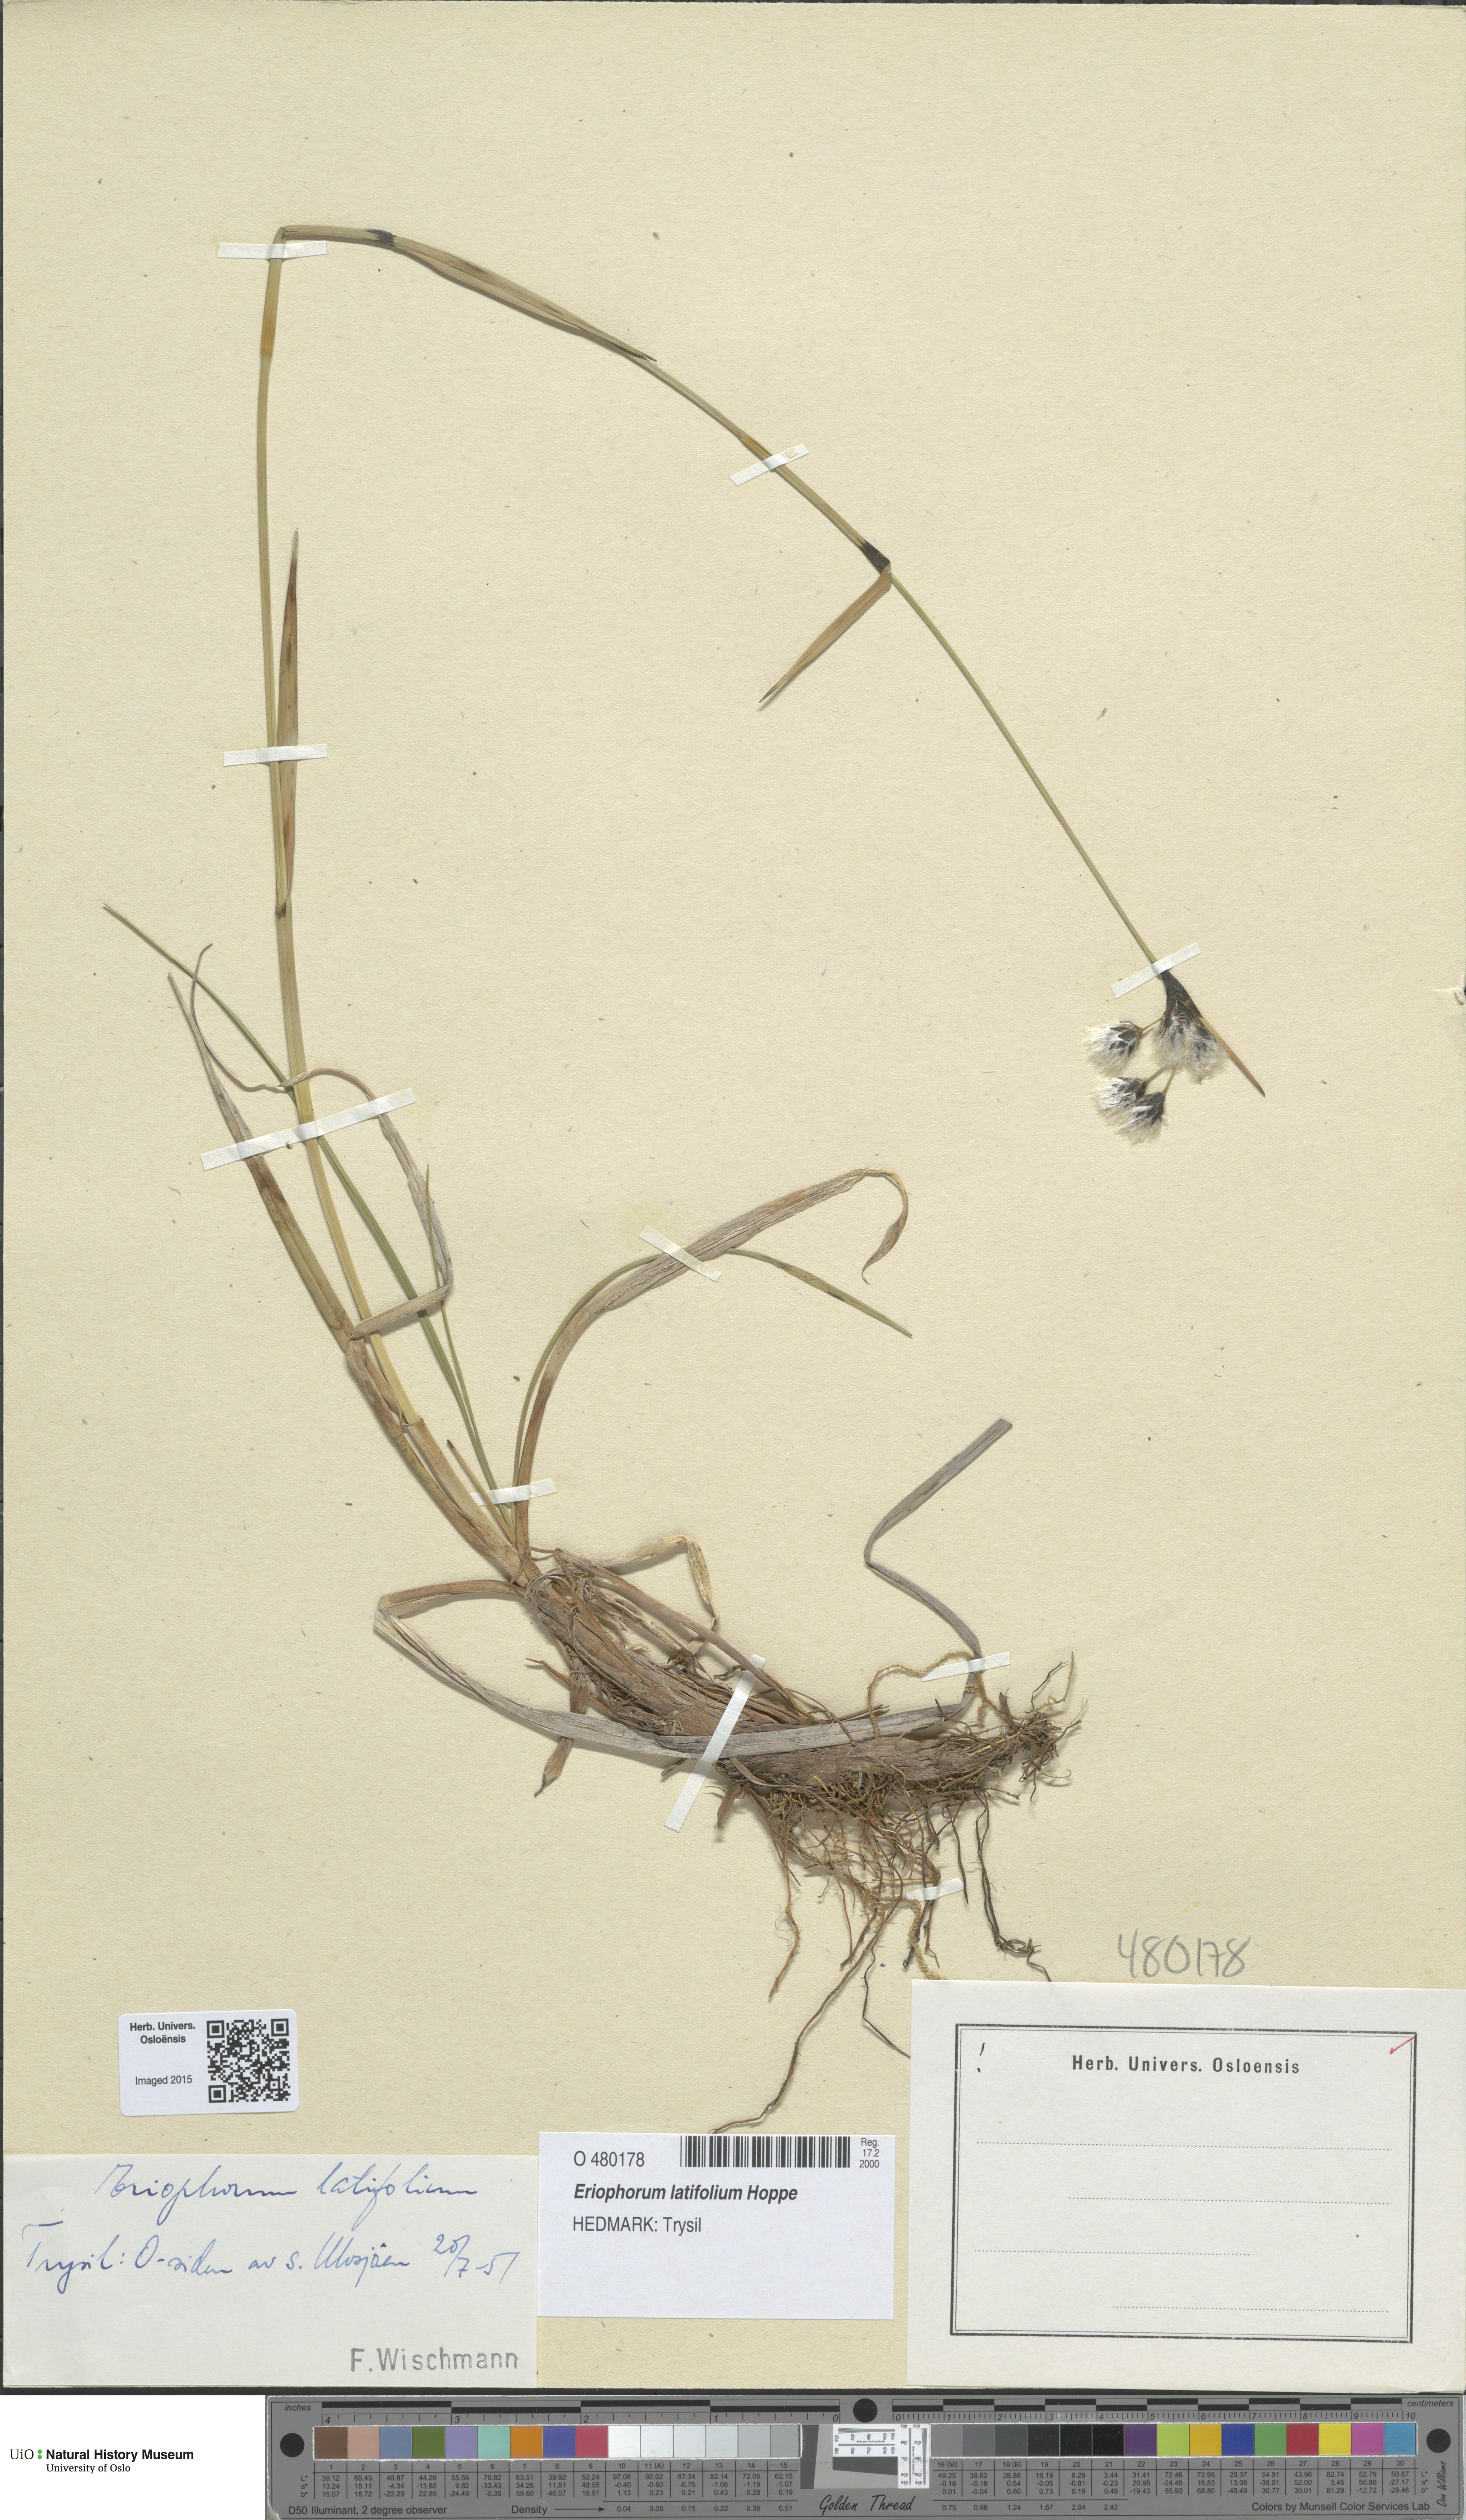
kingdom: Plantae
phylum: Tracheophyta
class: Liliopsida
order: Poales
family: Cyperaceae
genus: Eriophorum
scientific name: Eriophorum latifolium
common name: Broad-leaved cottongrass
